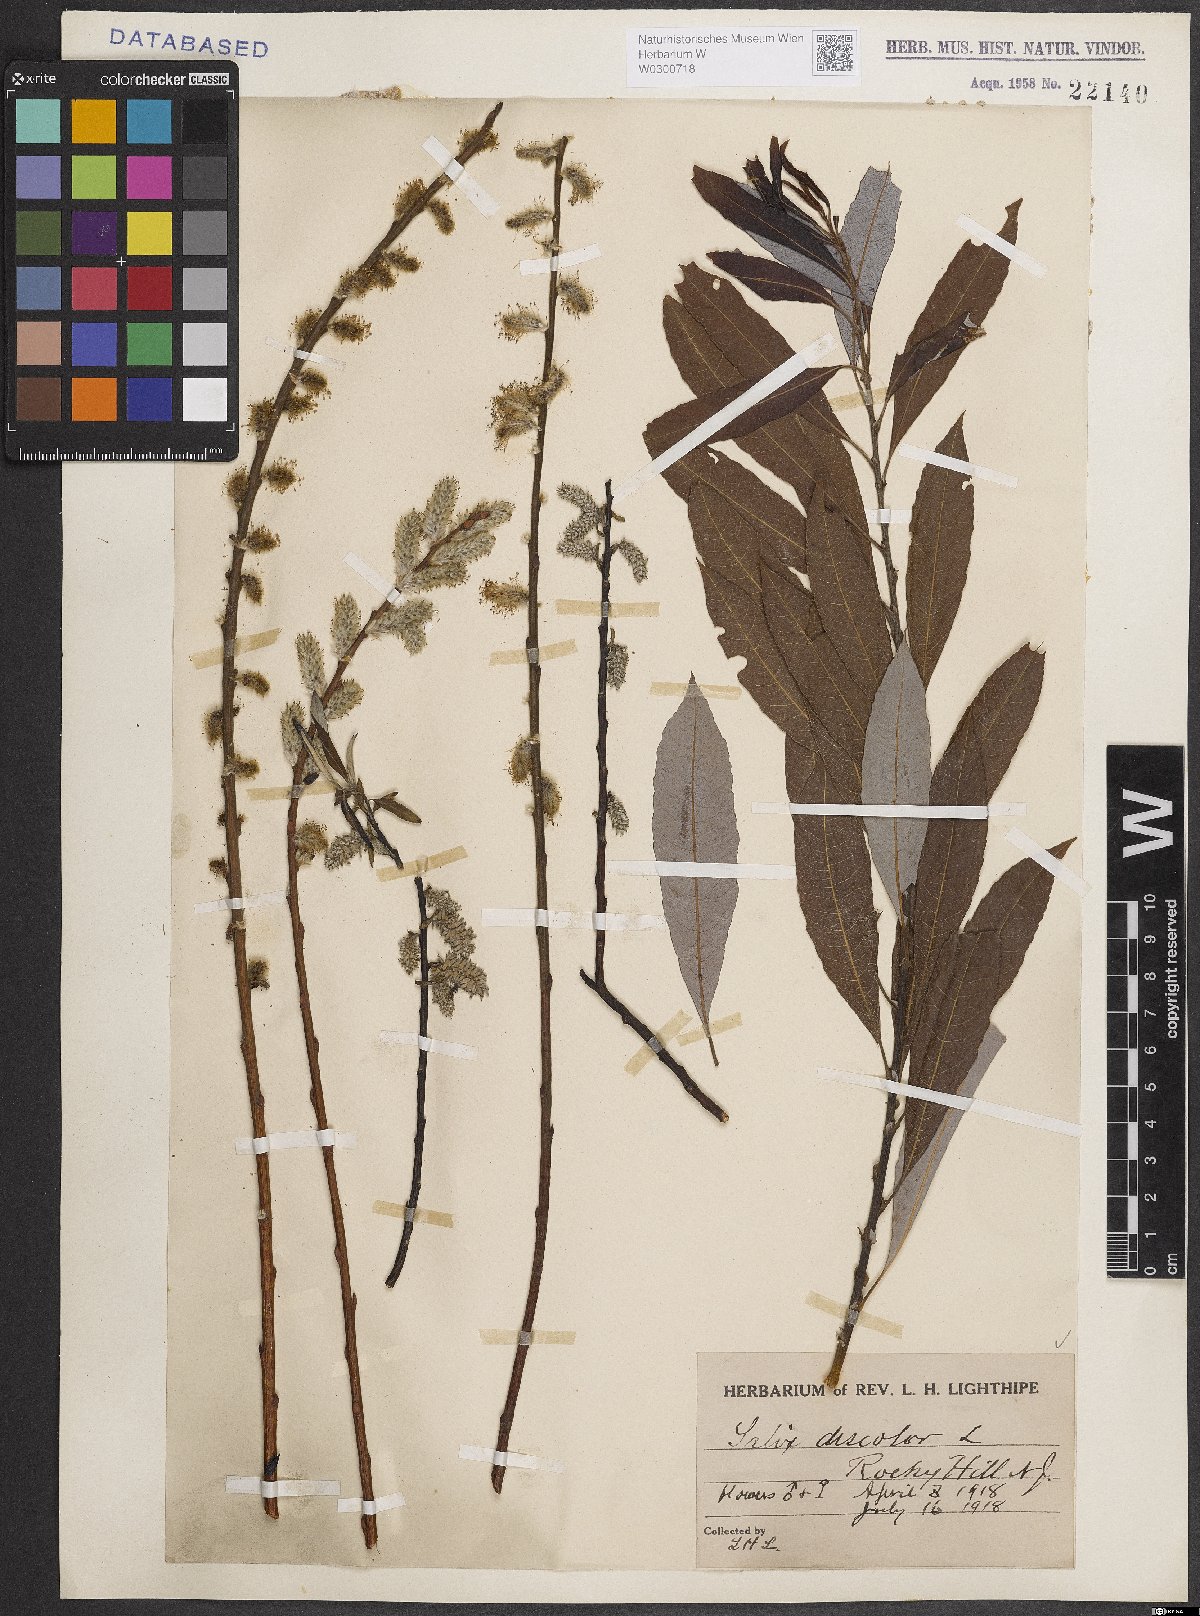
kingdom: Plantae
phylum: Tracheophyta
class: Magnoliopsida
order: Malpighiales
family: Salicaceae
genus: Salix
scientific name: Salix discolor
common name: Glaucous willow
